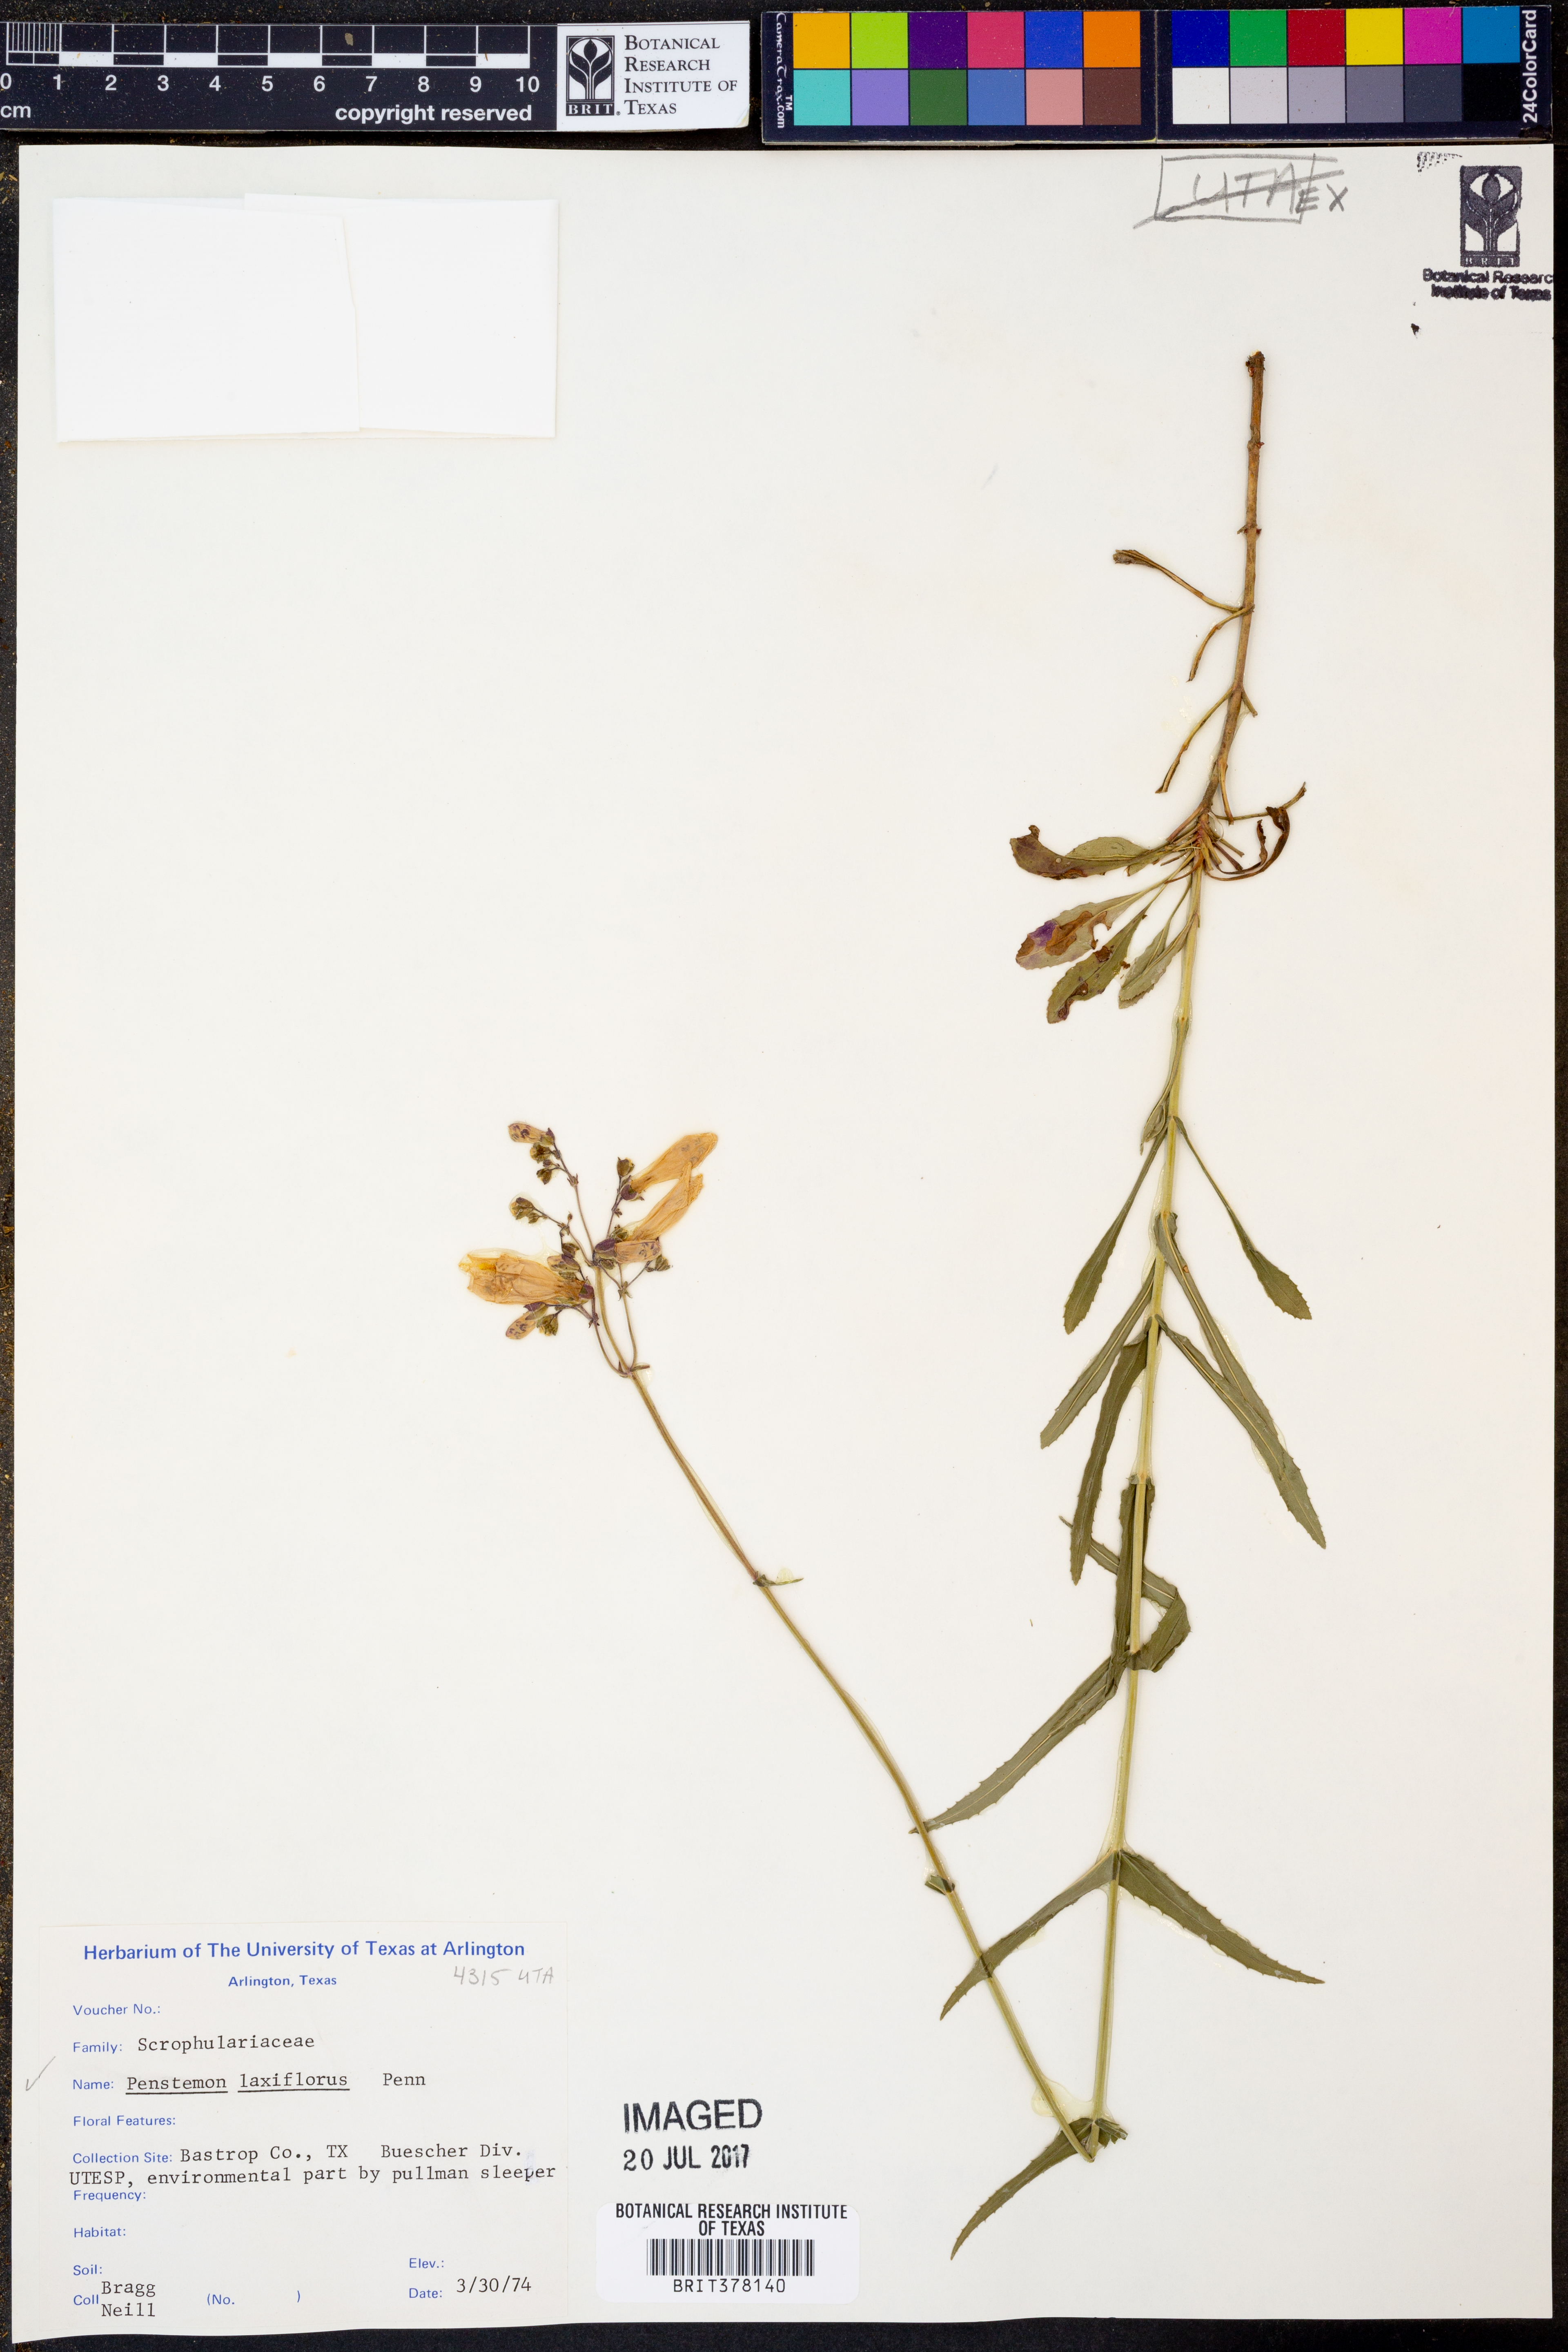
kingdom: Plantae
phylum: Tracheophyta
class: Magnoliopsida
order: Lamiales
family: Plantaginaceae
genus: Penstemon
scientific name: Penstemon laxiflorus
